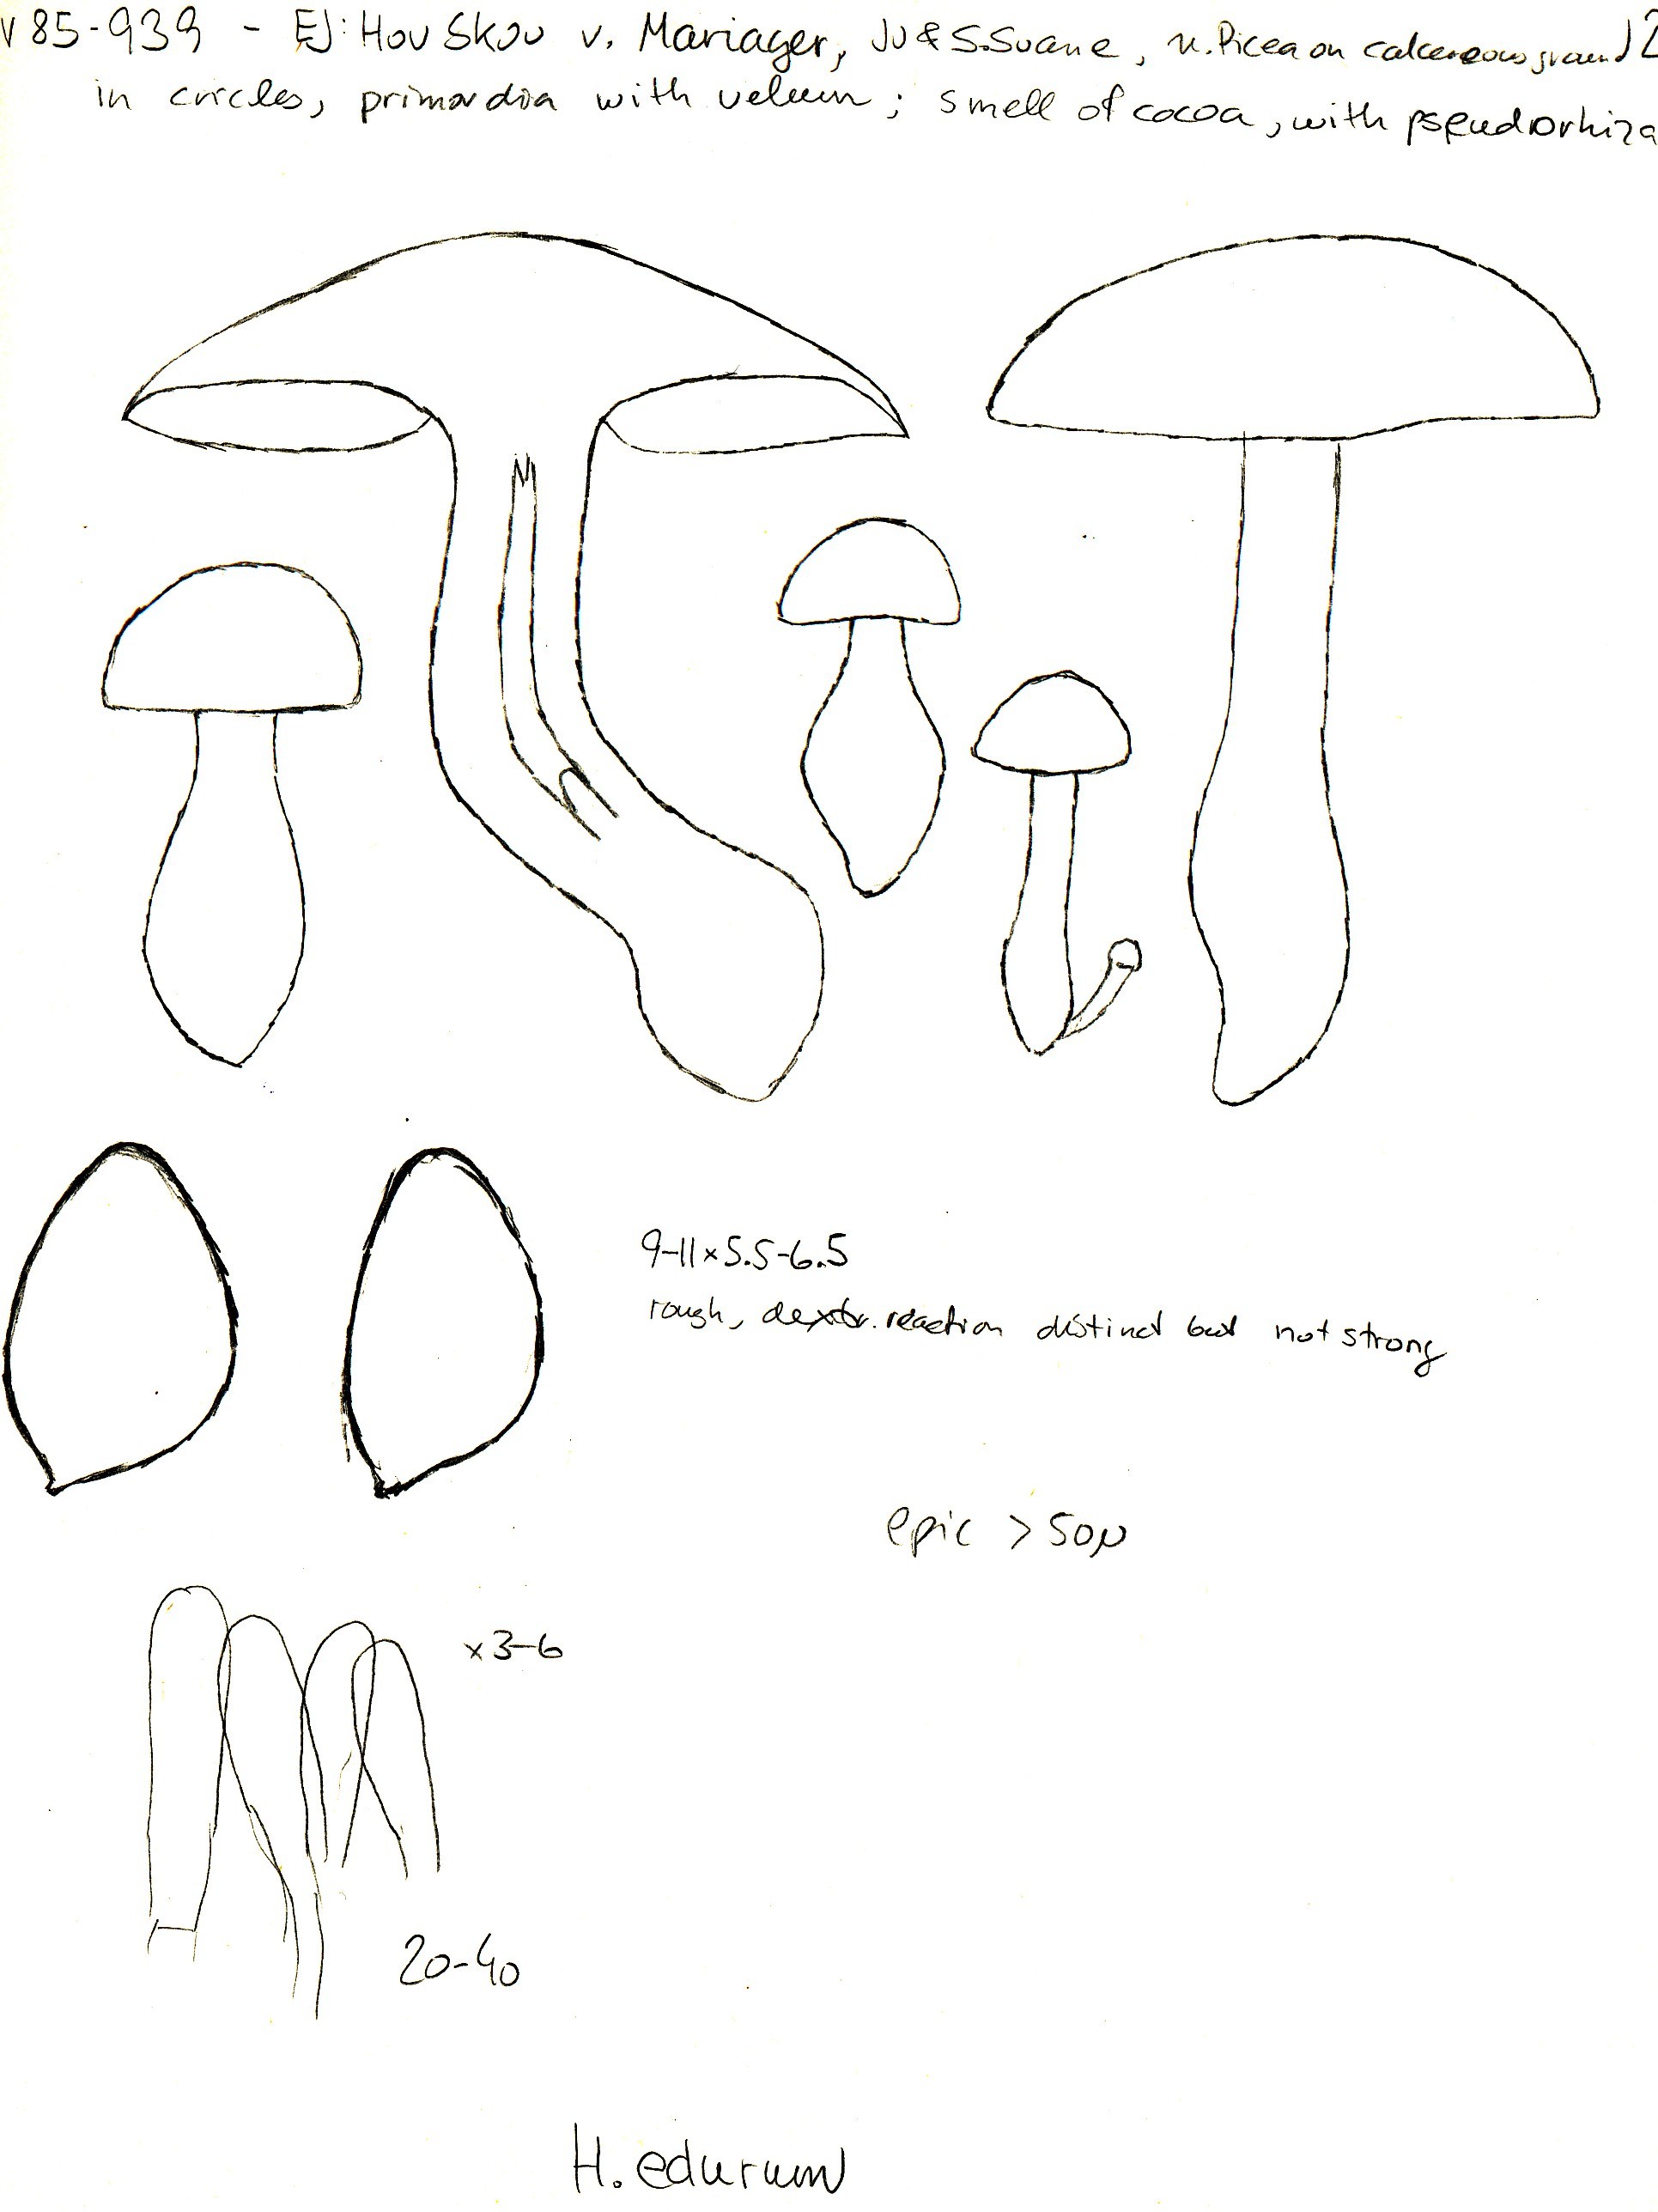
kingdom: Fungi
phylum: Basidiomycota
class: Agaricomycetes
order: Agaricales
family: Hymenogastraceae
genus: Hebeloma
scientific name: Hebeloma laterinum
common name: kakao-tåreblad
